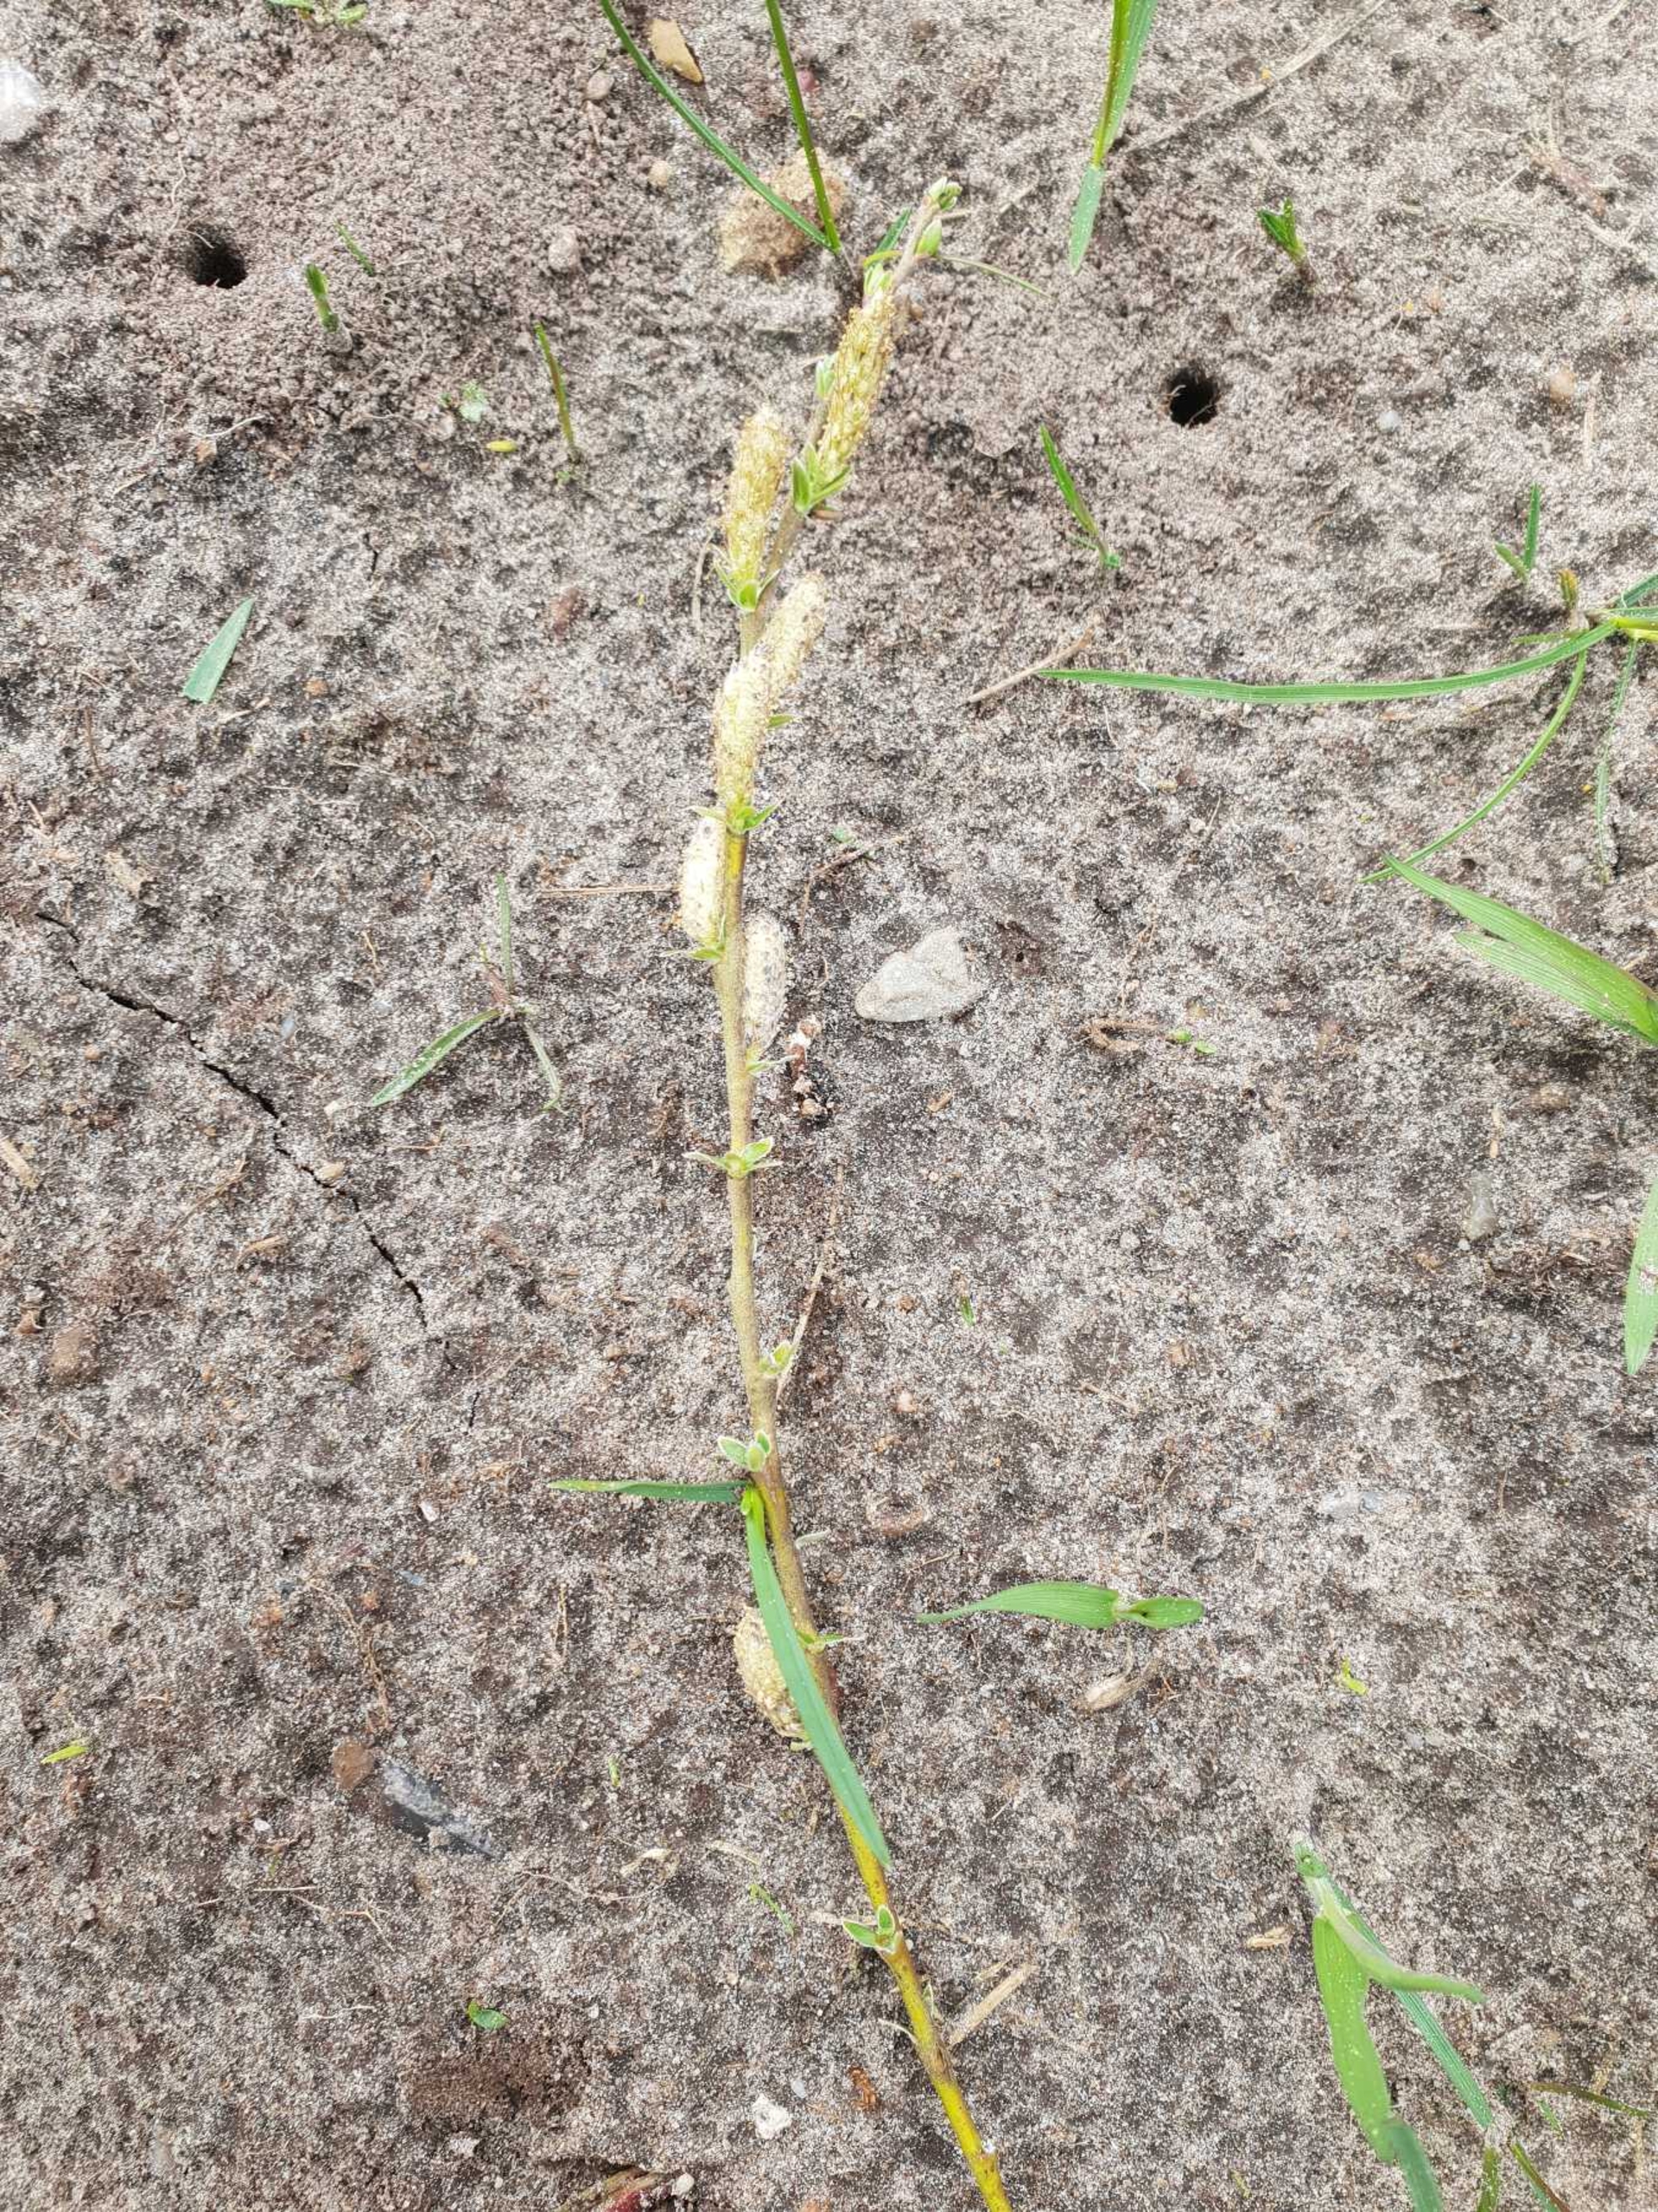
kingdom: Plantae
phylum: Tracheophyta
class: Magnoliopsida
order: Malpighiales
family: Salicaceae
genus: Salix
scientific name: Salix repens
